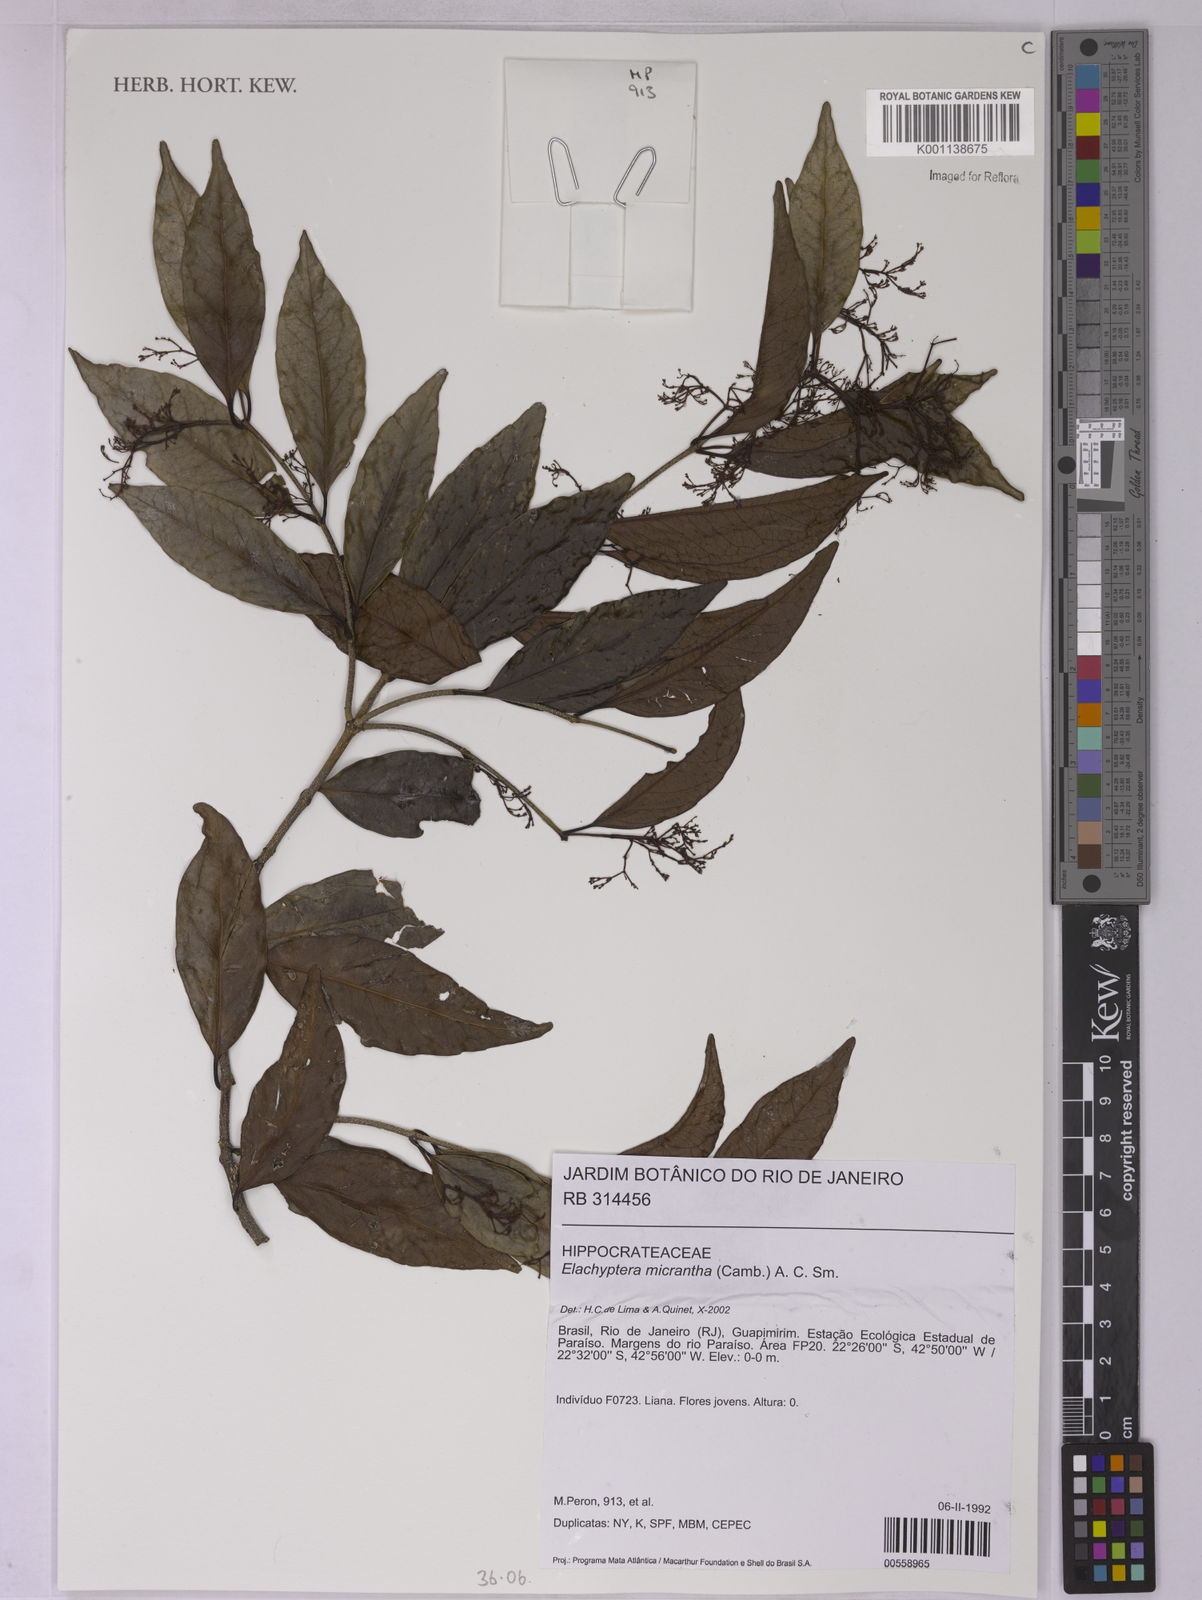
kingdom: Plantae
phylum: Tracheophyta
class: Magnoliopsida
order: Celastrales
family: Celastraceae
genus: Elachyptera
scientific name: Elachyptera micrantha
